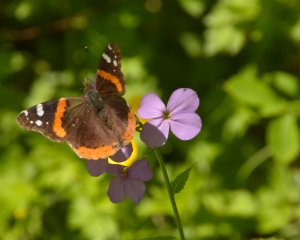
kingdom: Animalia
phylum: Arthropoda
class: Insecta
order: Lepidoptera
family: Nymphalidae
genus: Vanessa
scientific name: Vanessa atalanta
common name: Red Admiral
